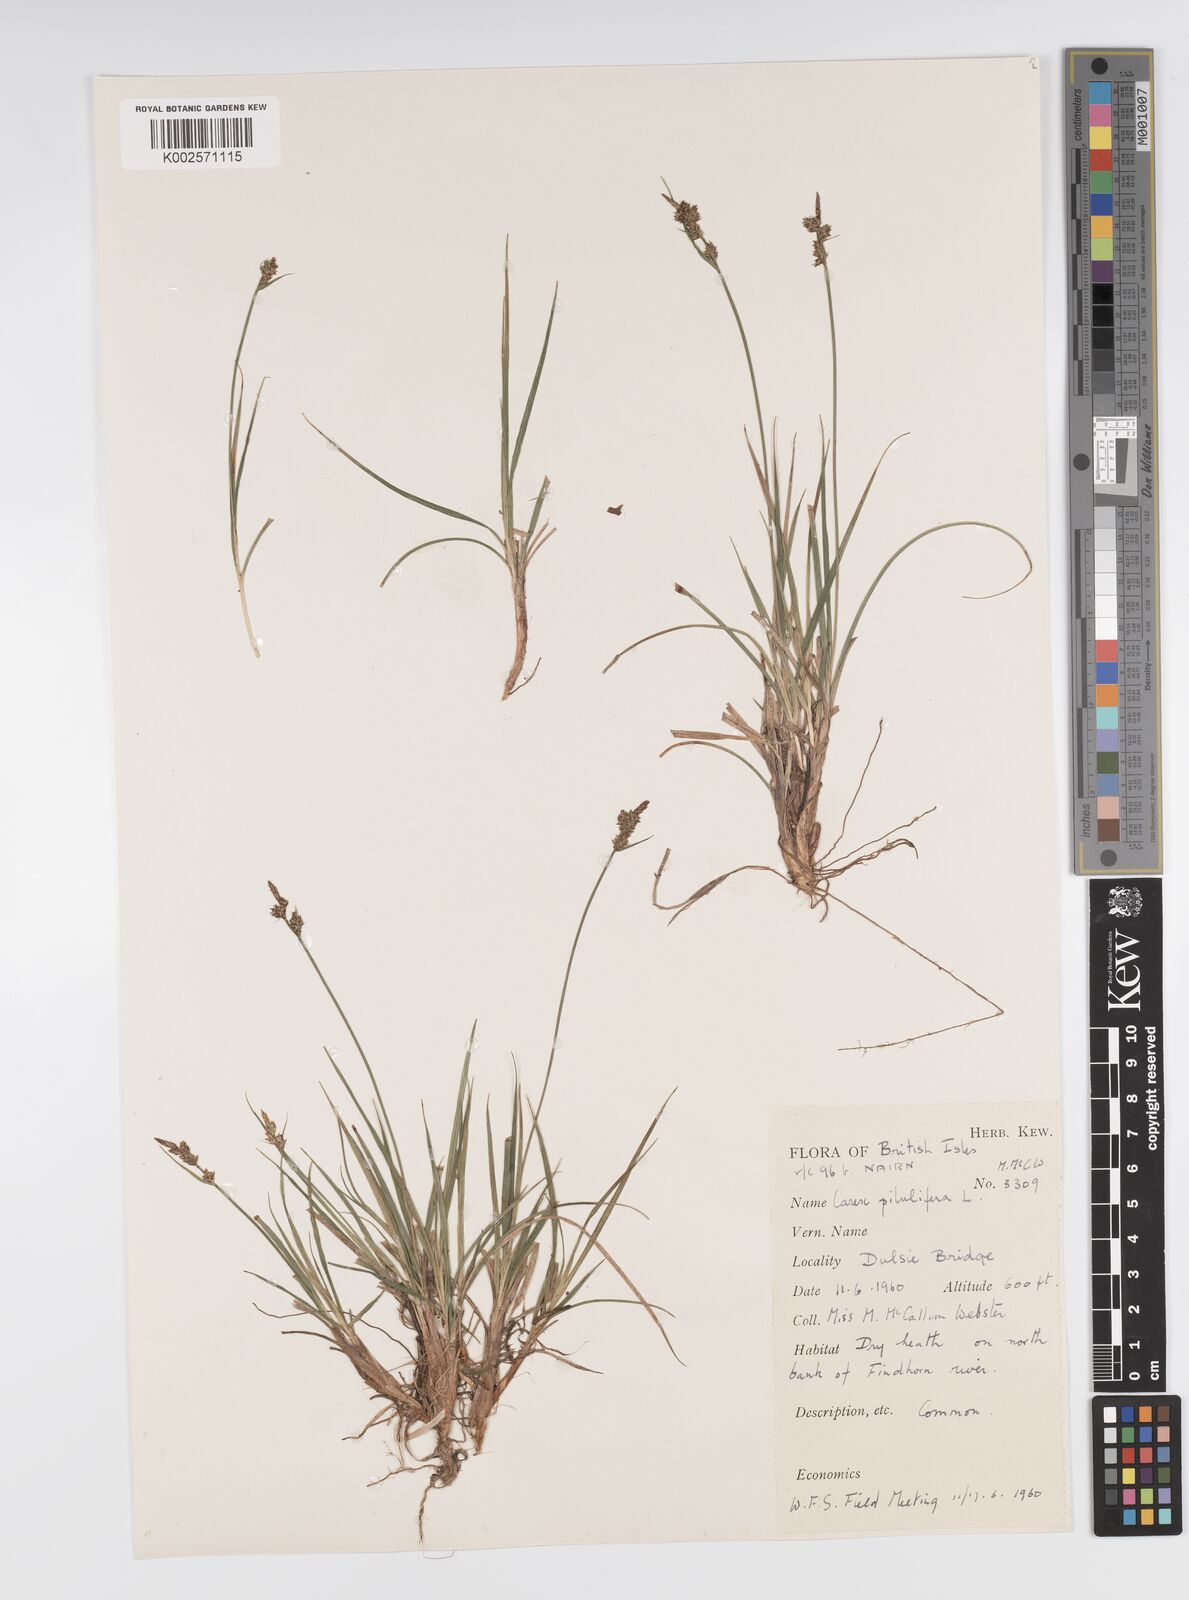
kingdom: Plantae
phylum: Tracheophyta
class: Liliopsida
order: Poales
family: Cyperaceae
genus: Carex
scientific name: Carex pilulifera
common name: Pill sedge
